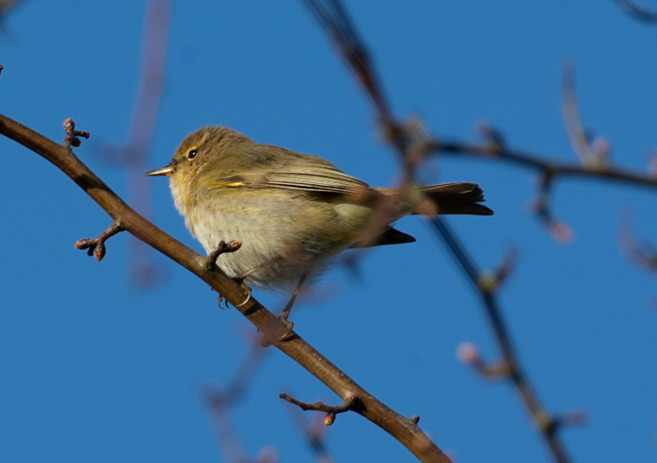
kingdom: Animalia
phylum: Chordata
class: Aves
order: Passeriformes
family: Phylloscopidae
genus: Phylloscopus
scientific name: Phylloscopus collybita
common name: Gransanger
